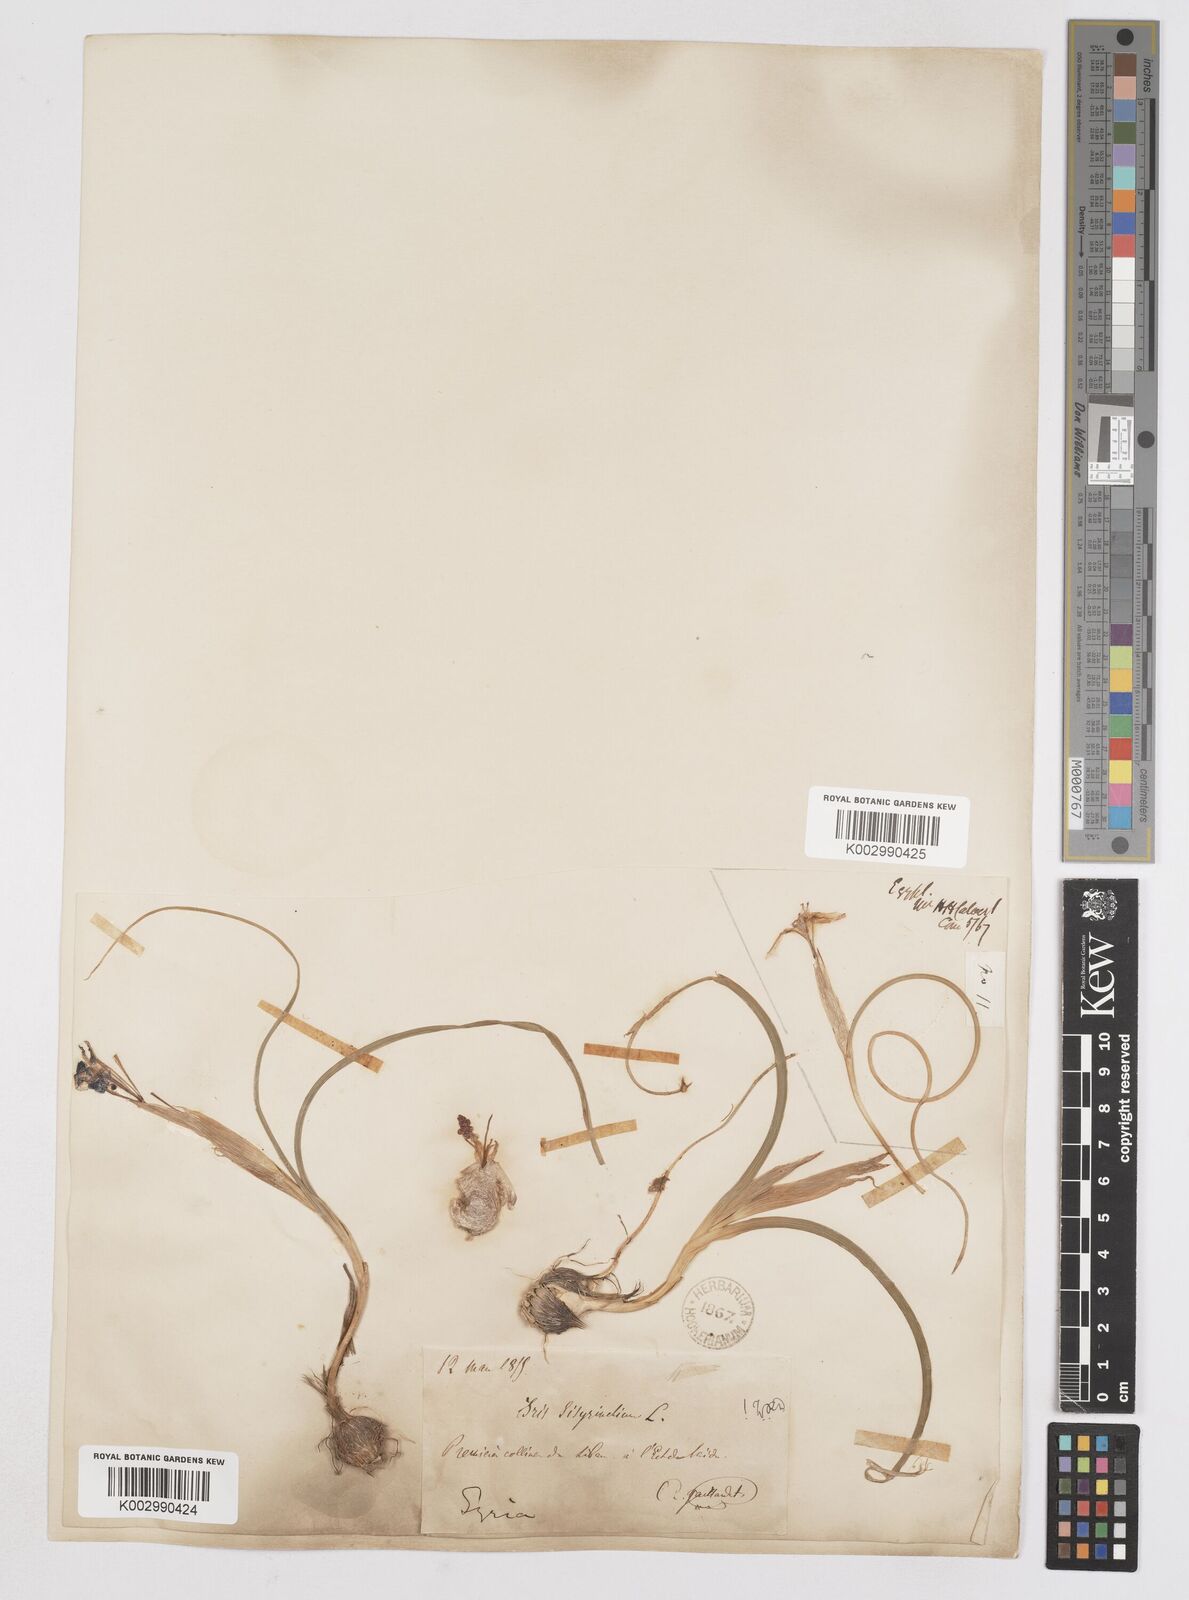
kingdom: Plantae
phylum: Tracheophyta
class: Liliopsida
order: Asparagales
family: Iridaceae
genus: Moraea
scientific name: Moraea sisyrinchium
